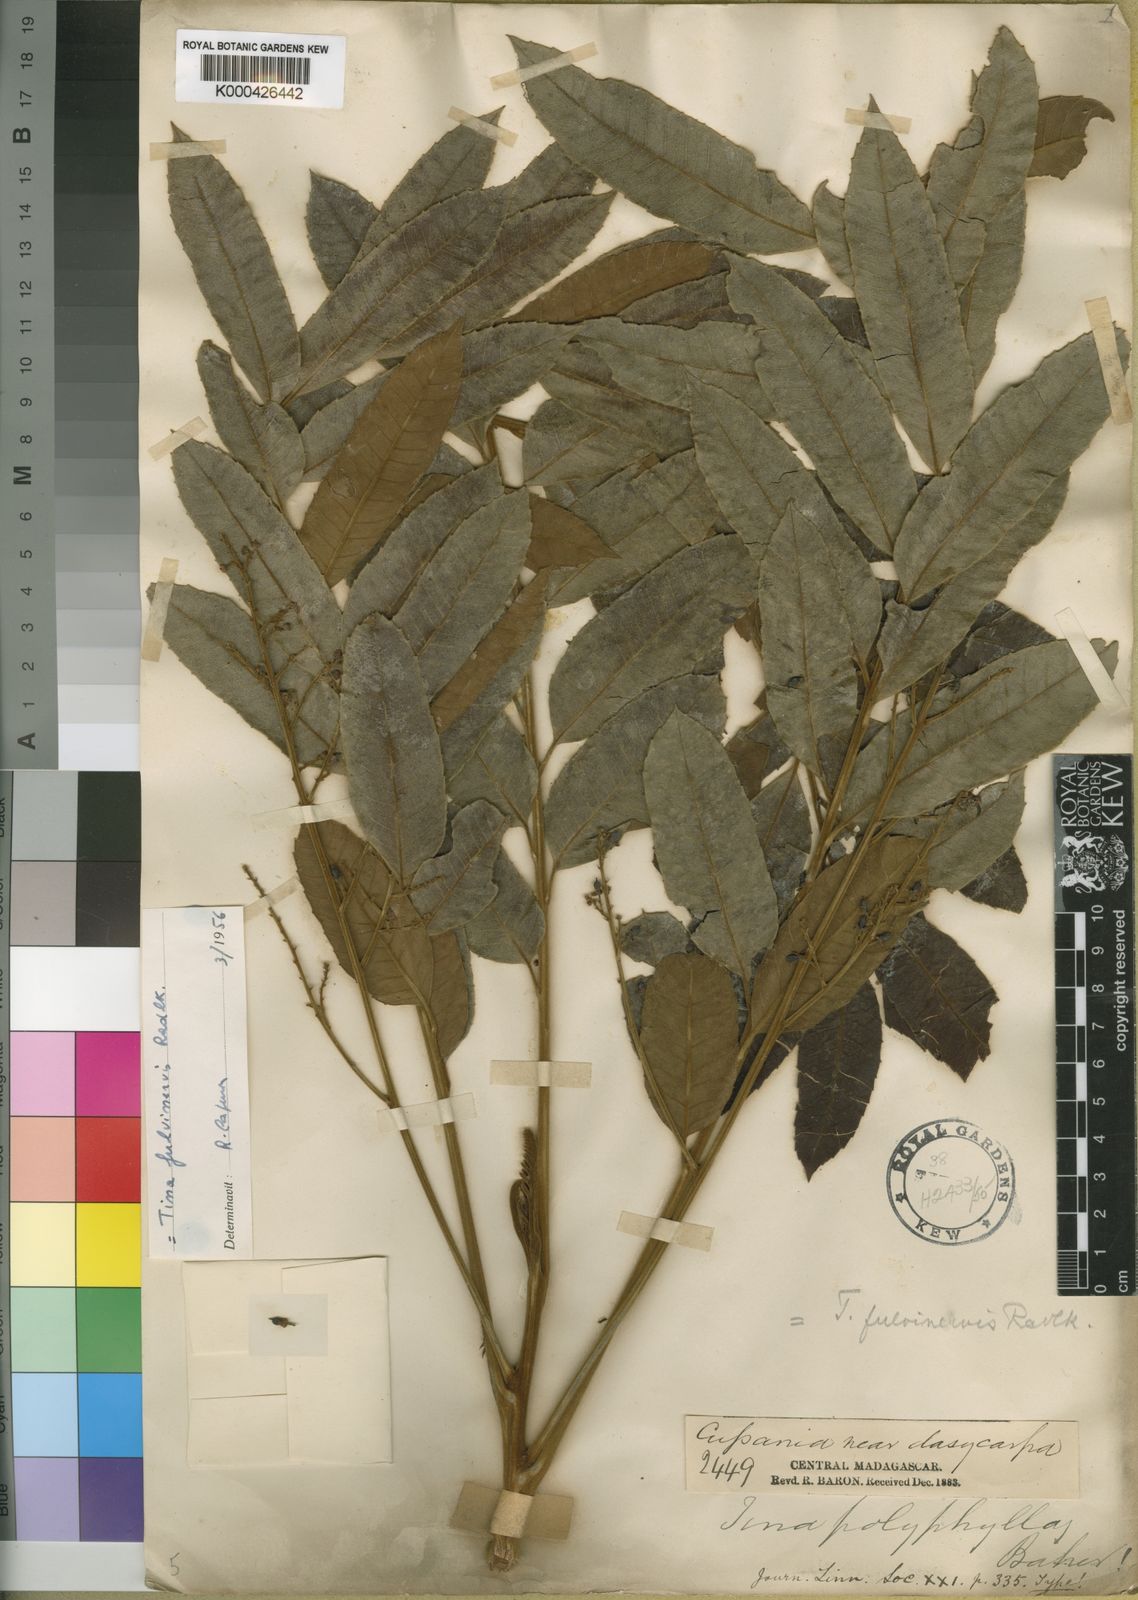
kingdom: Plantae
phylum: Tracheophyta
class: Magnoliopsida
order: Sapindales
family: Sapindaceae
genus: Tina
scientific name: Tina fulvinervis
